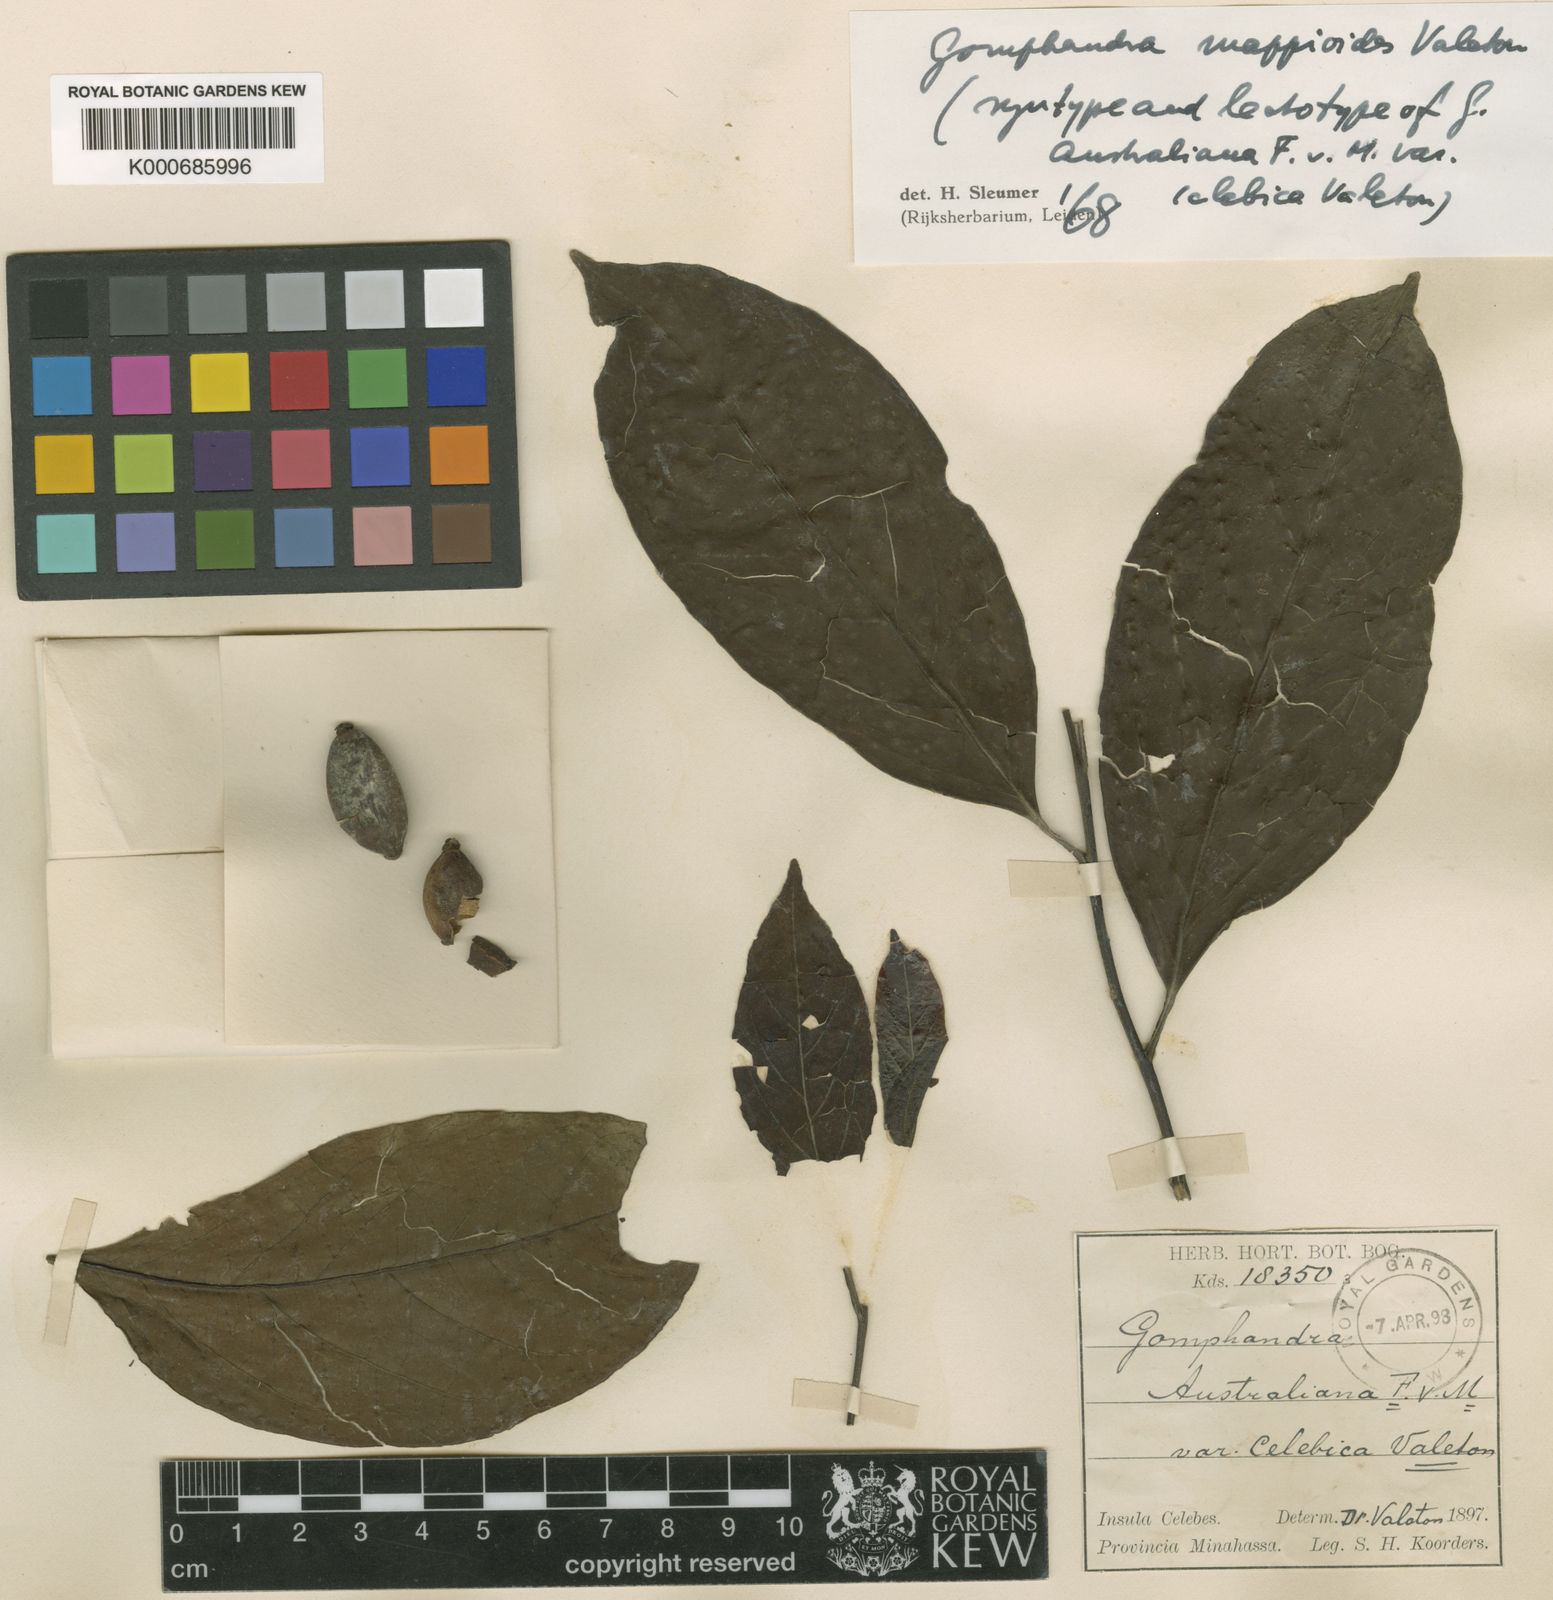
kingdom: Plantae
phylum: Tracheophyta
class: Magnoliopsida
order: Cardiopteridales
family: Stemonuraceae
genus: Gomphandra
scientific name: Gomphandra mappioides
